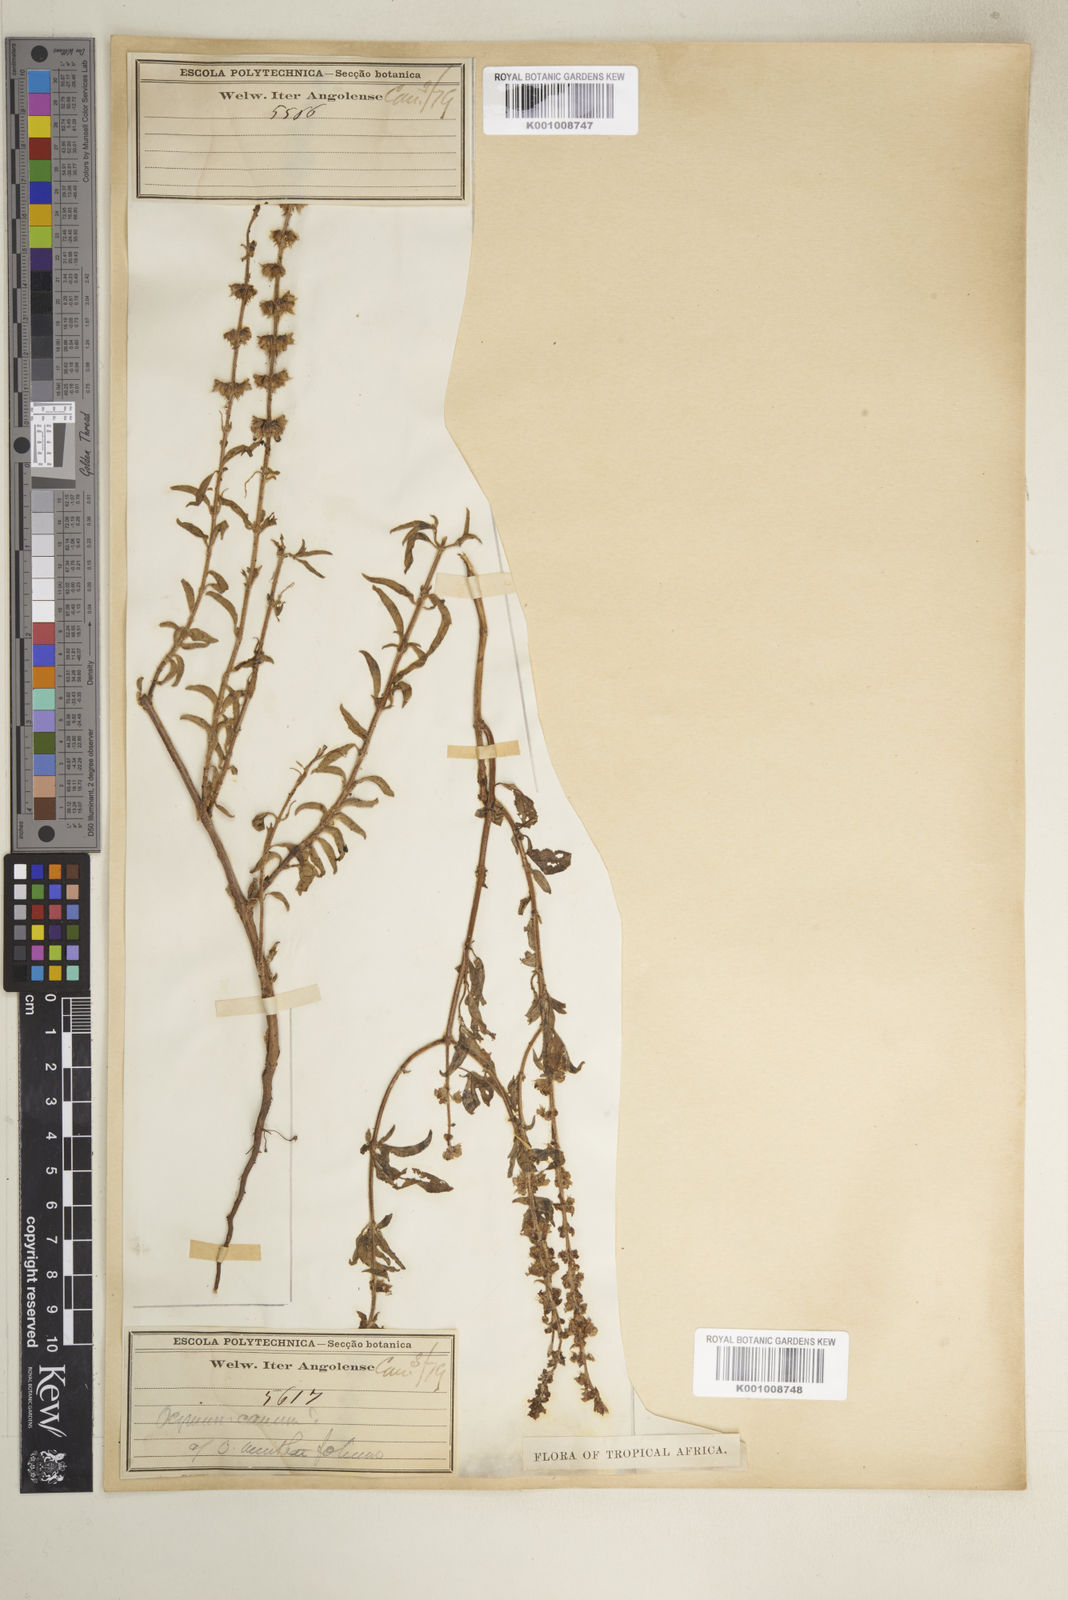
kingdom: Plantae
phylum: Tracheophyta
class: Magnoliopsida
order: Lamiales
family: Lamiaceae
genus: Ocimum
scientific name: Ocimum americanum
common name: American basil
